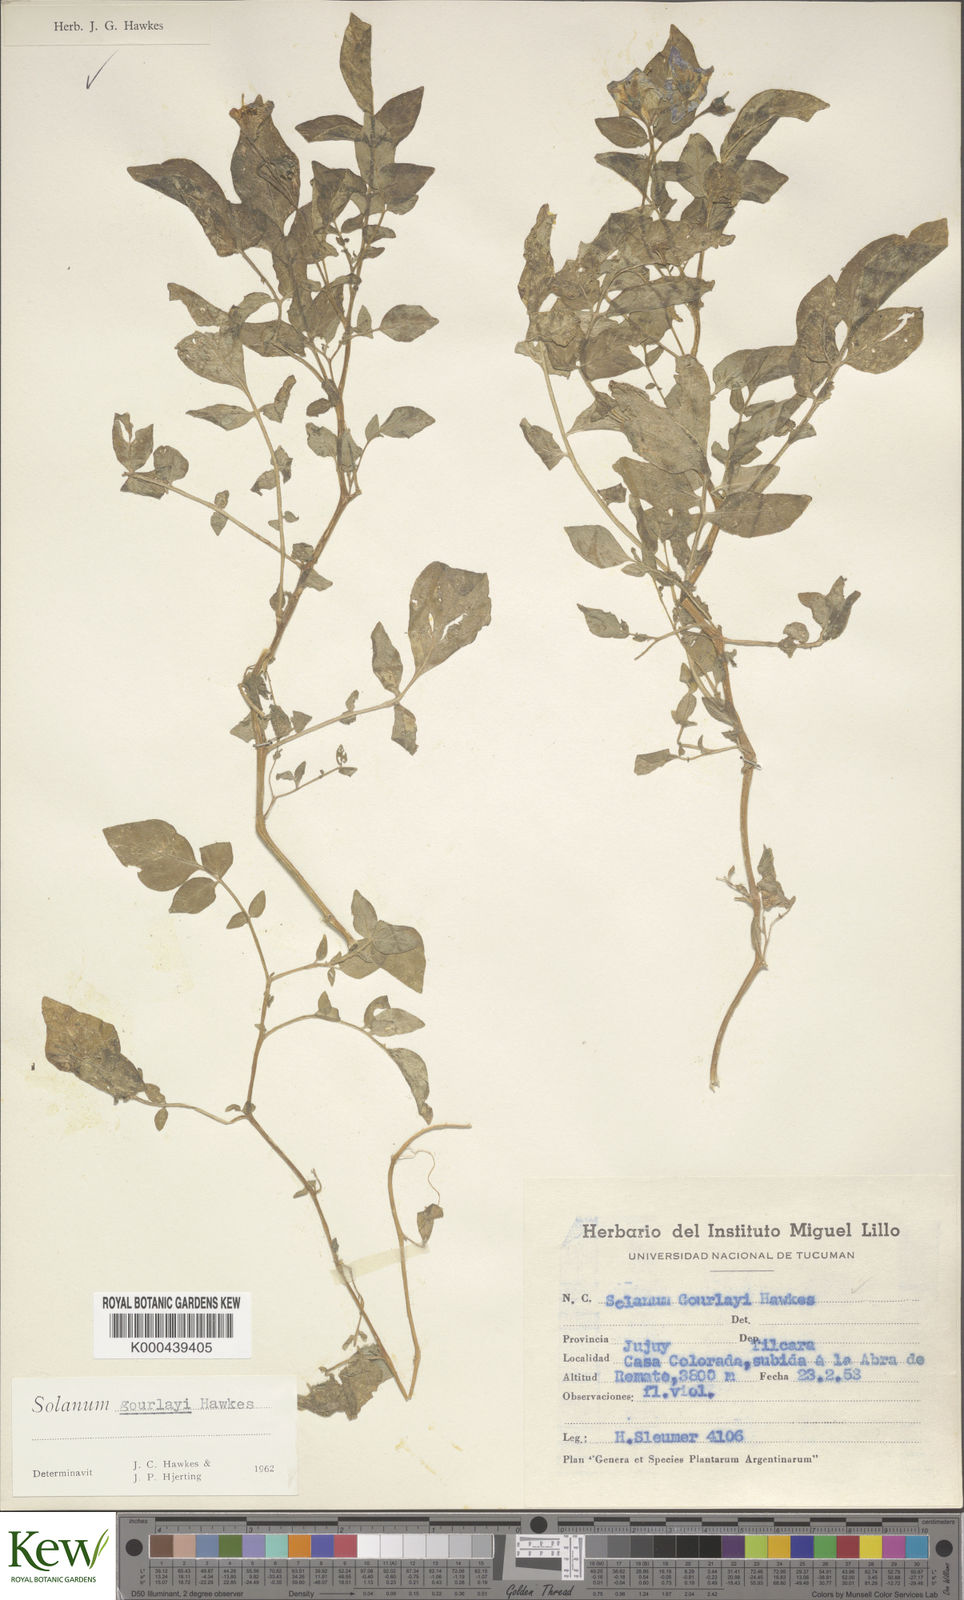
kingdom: Plantae
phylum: Tracheophyta
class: Magnoliopsida
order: Solanales
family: Solanaceae
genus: Solanum
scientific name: Solanum brevicaule
